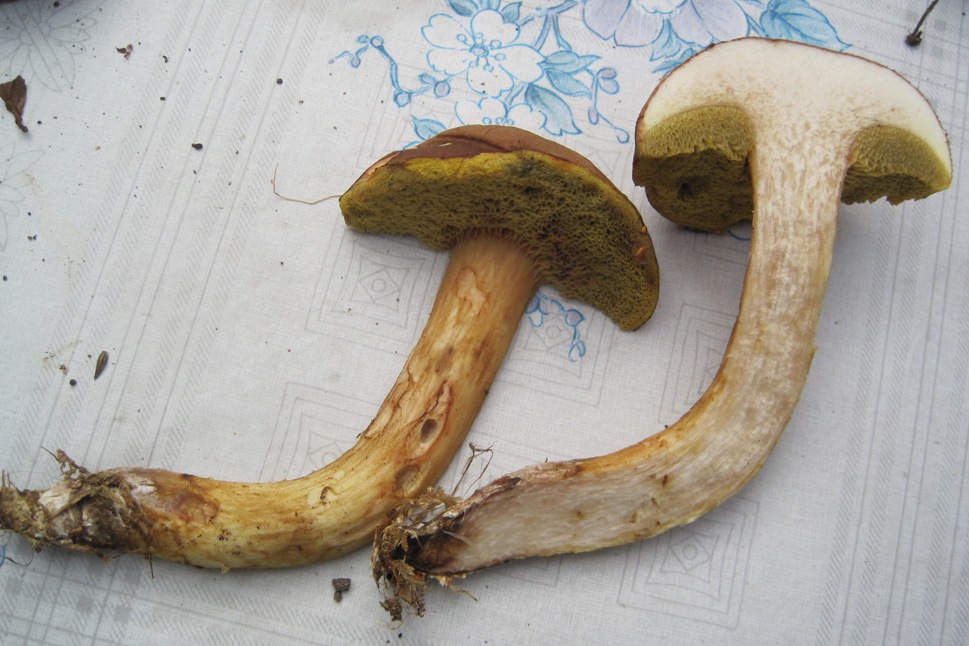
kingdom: Fungi
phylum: Basidiomycota
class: Agaricomycetes
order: Boletales
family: Boletaceae
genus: Xerocomus
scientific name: Xerocomus ferrugineus
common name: vaskeskinds-rørhat
